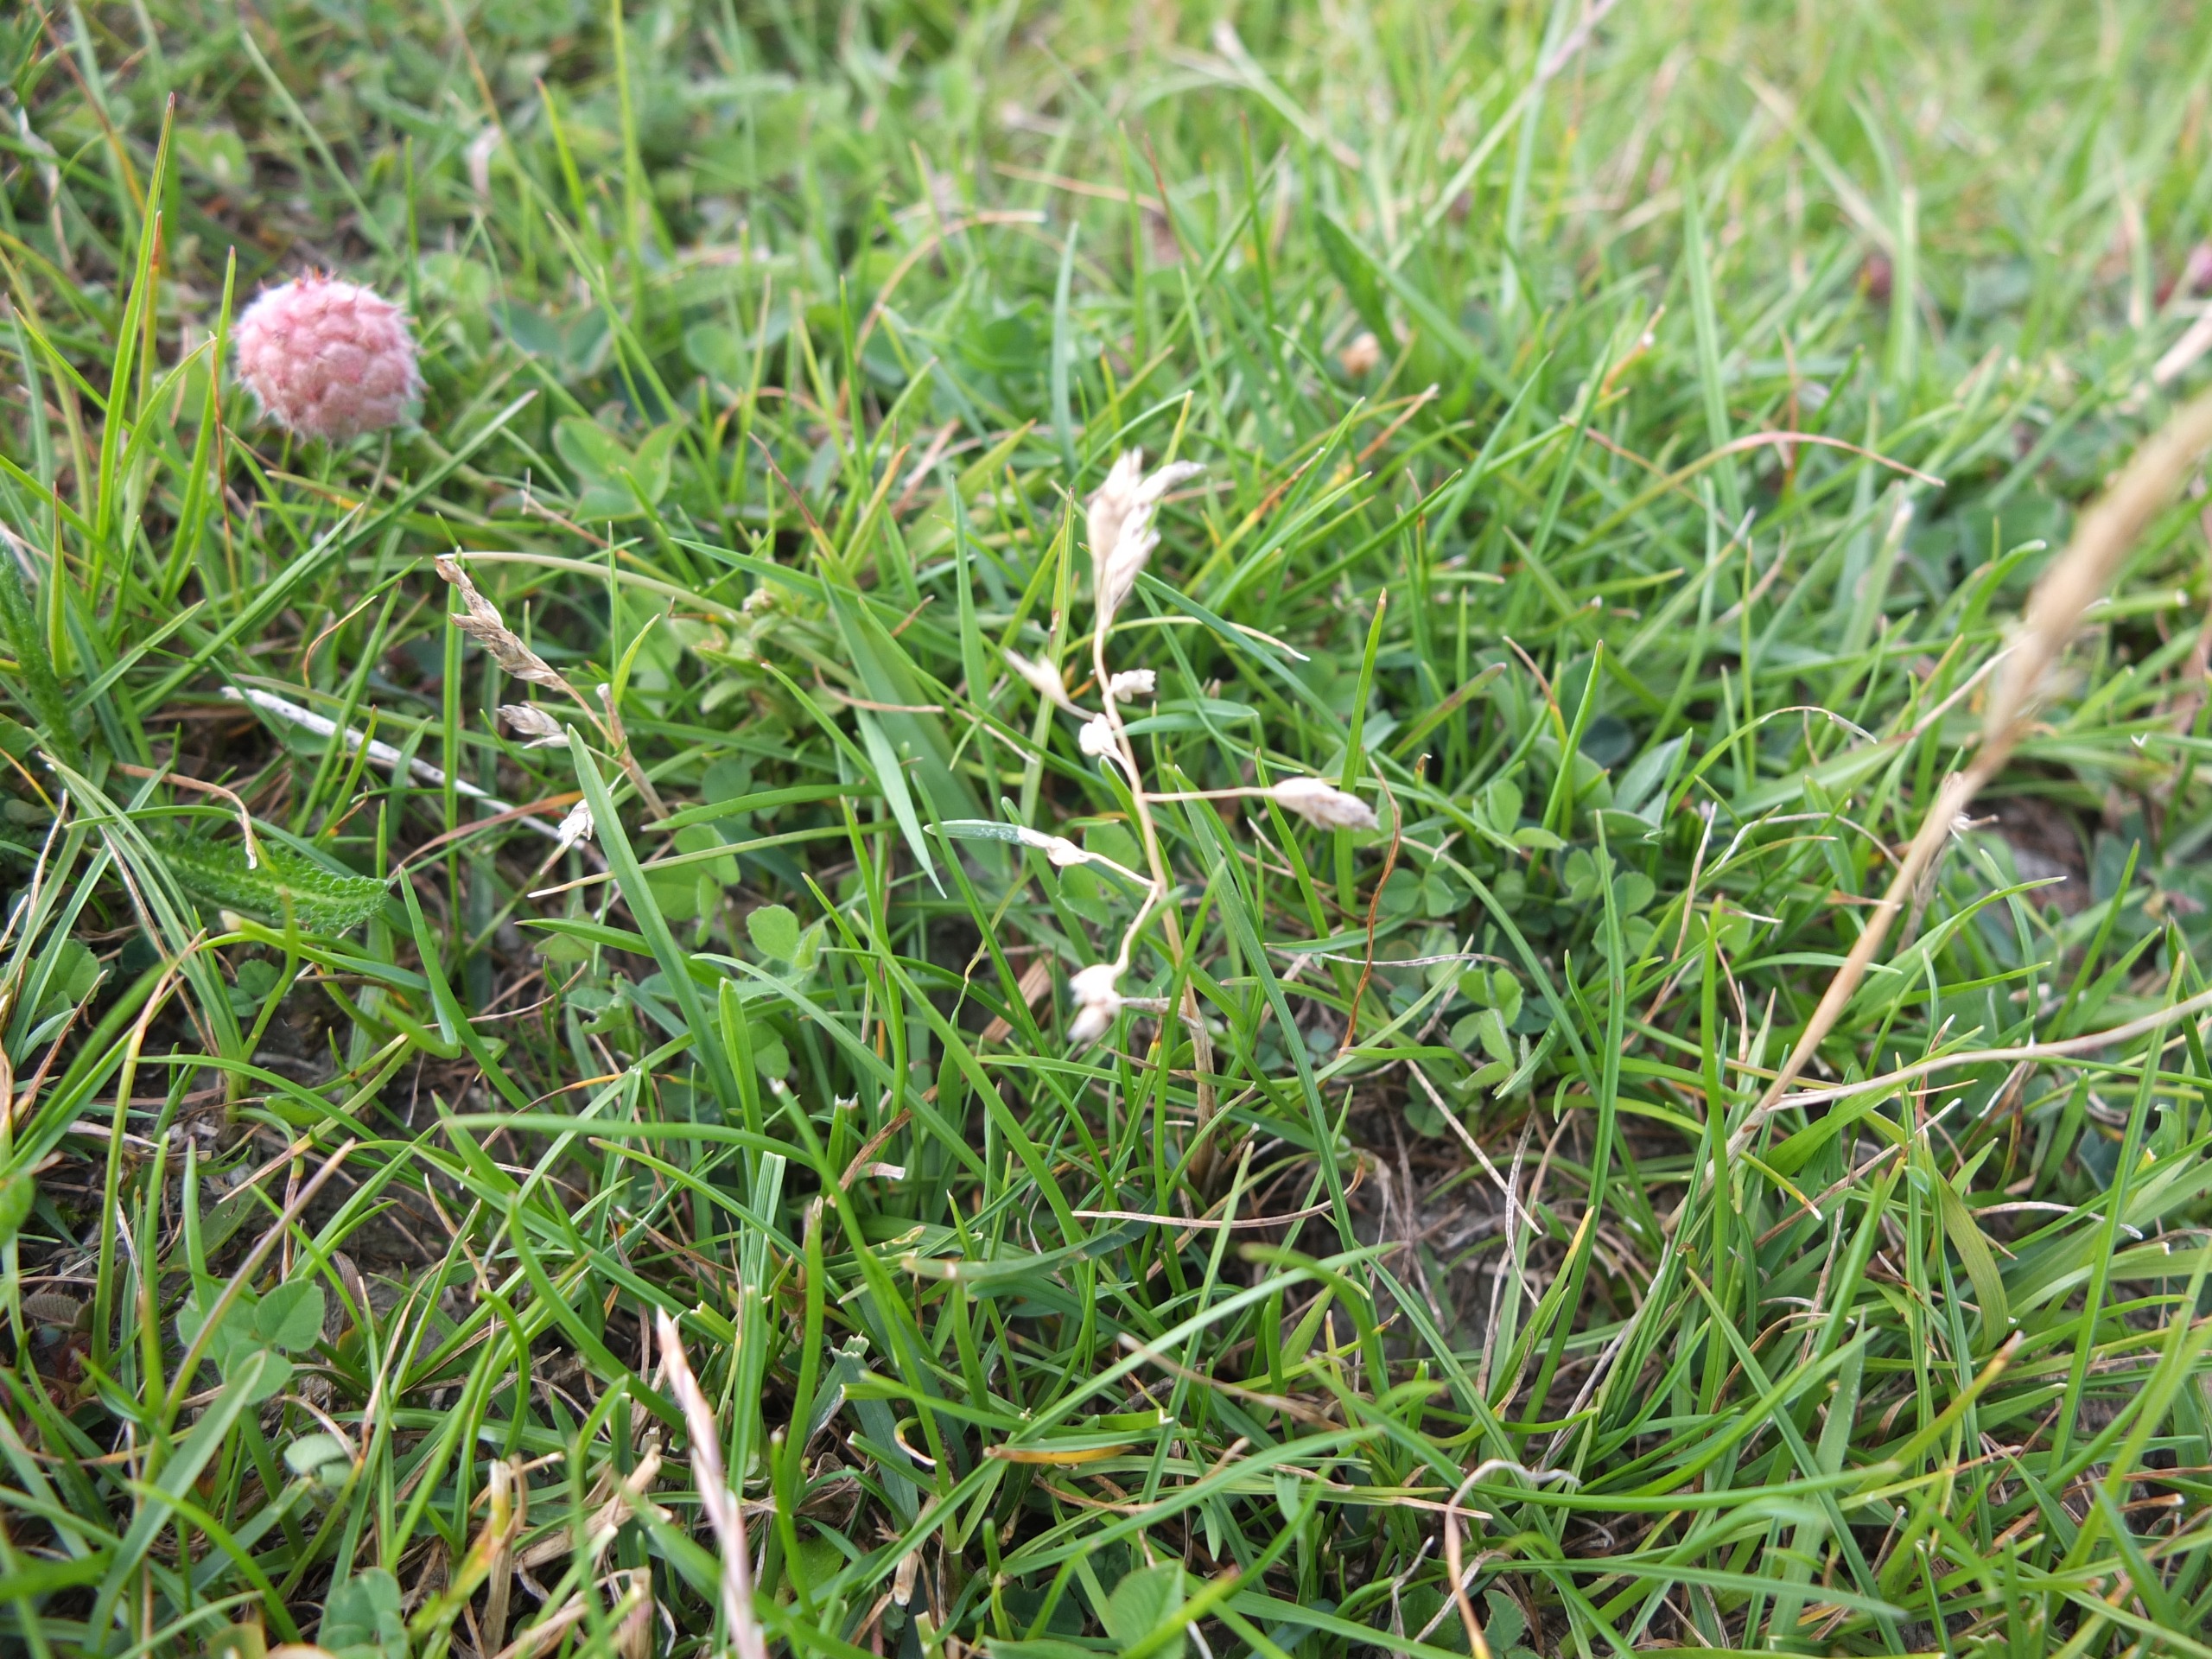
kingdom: Plantae
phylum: Tracheophyta
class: Liliopsida
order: Poales
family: Poaceae
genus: Poa
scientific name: Poa humilis
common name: Blågrøn rapgræs
